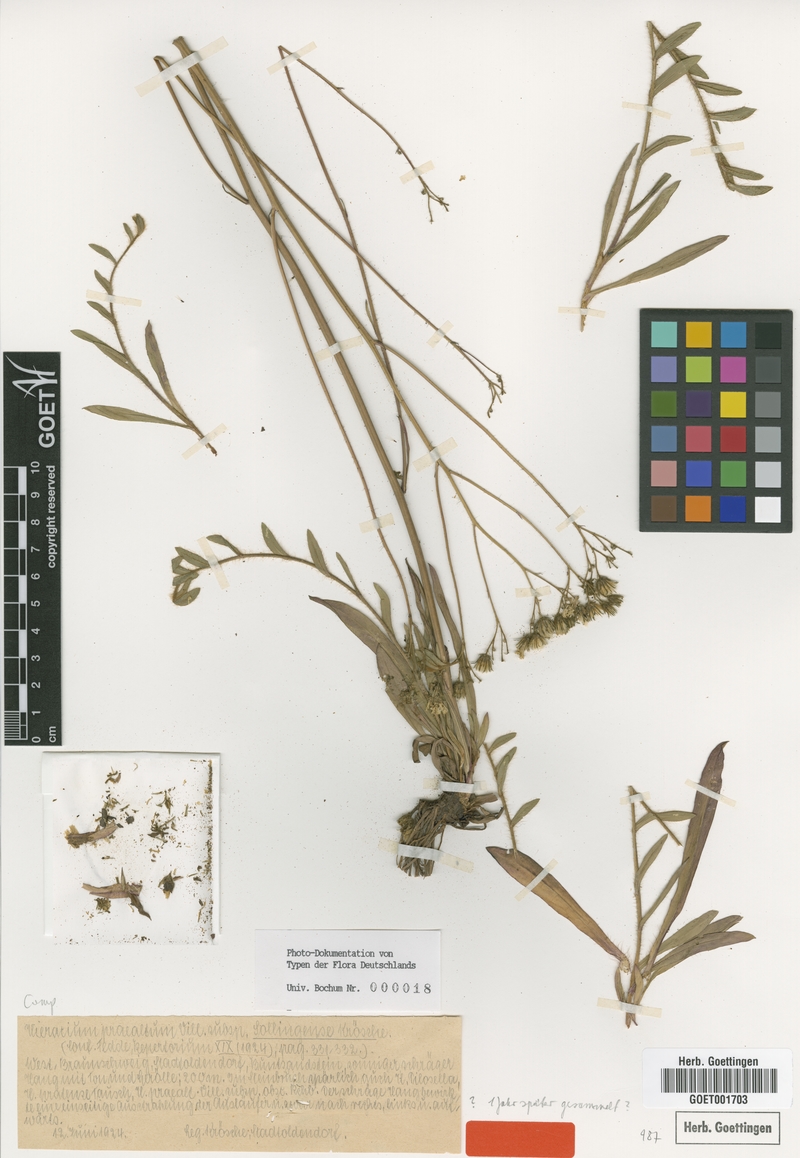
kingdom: Plantae
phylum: Tracheophyta
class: Magnoliopsida
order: Asterales
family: Asteraceae
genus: Hieracium
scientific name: Hieracium praealtum
